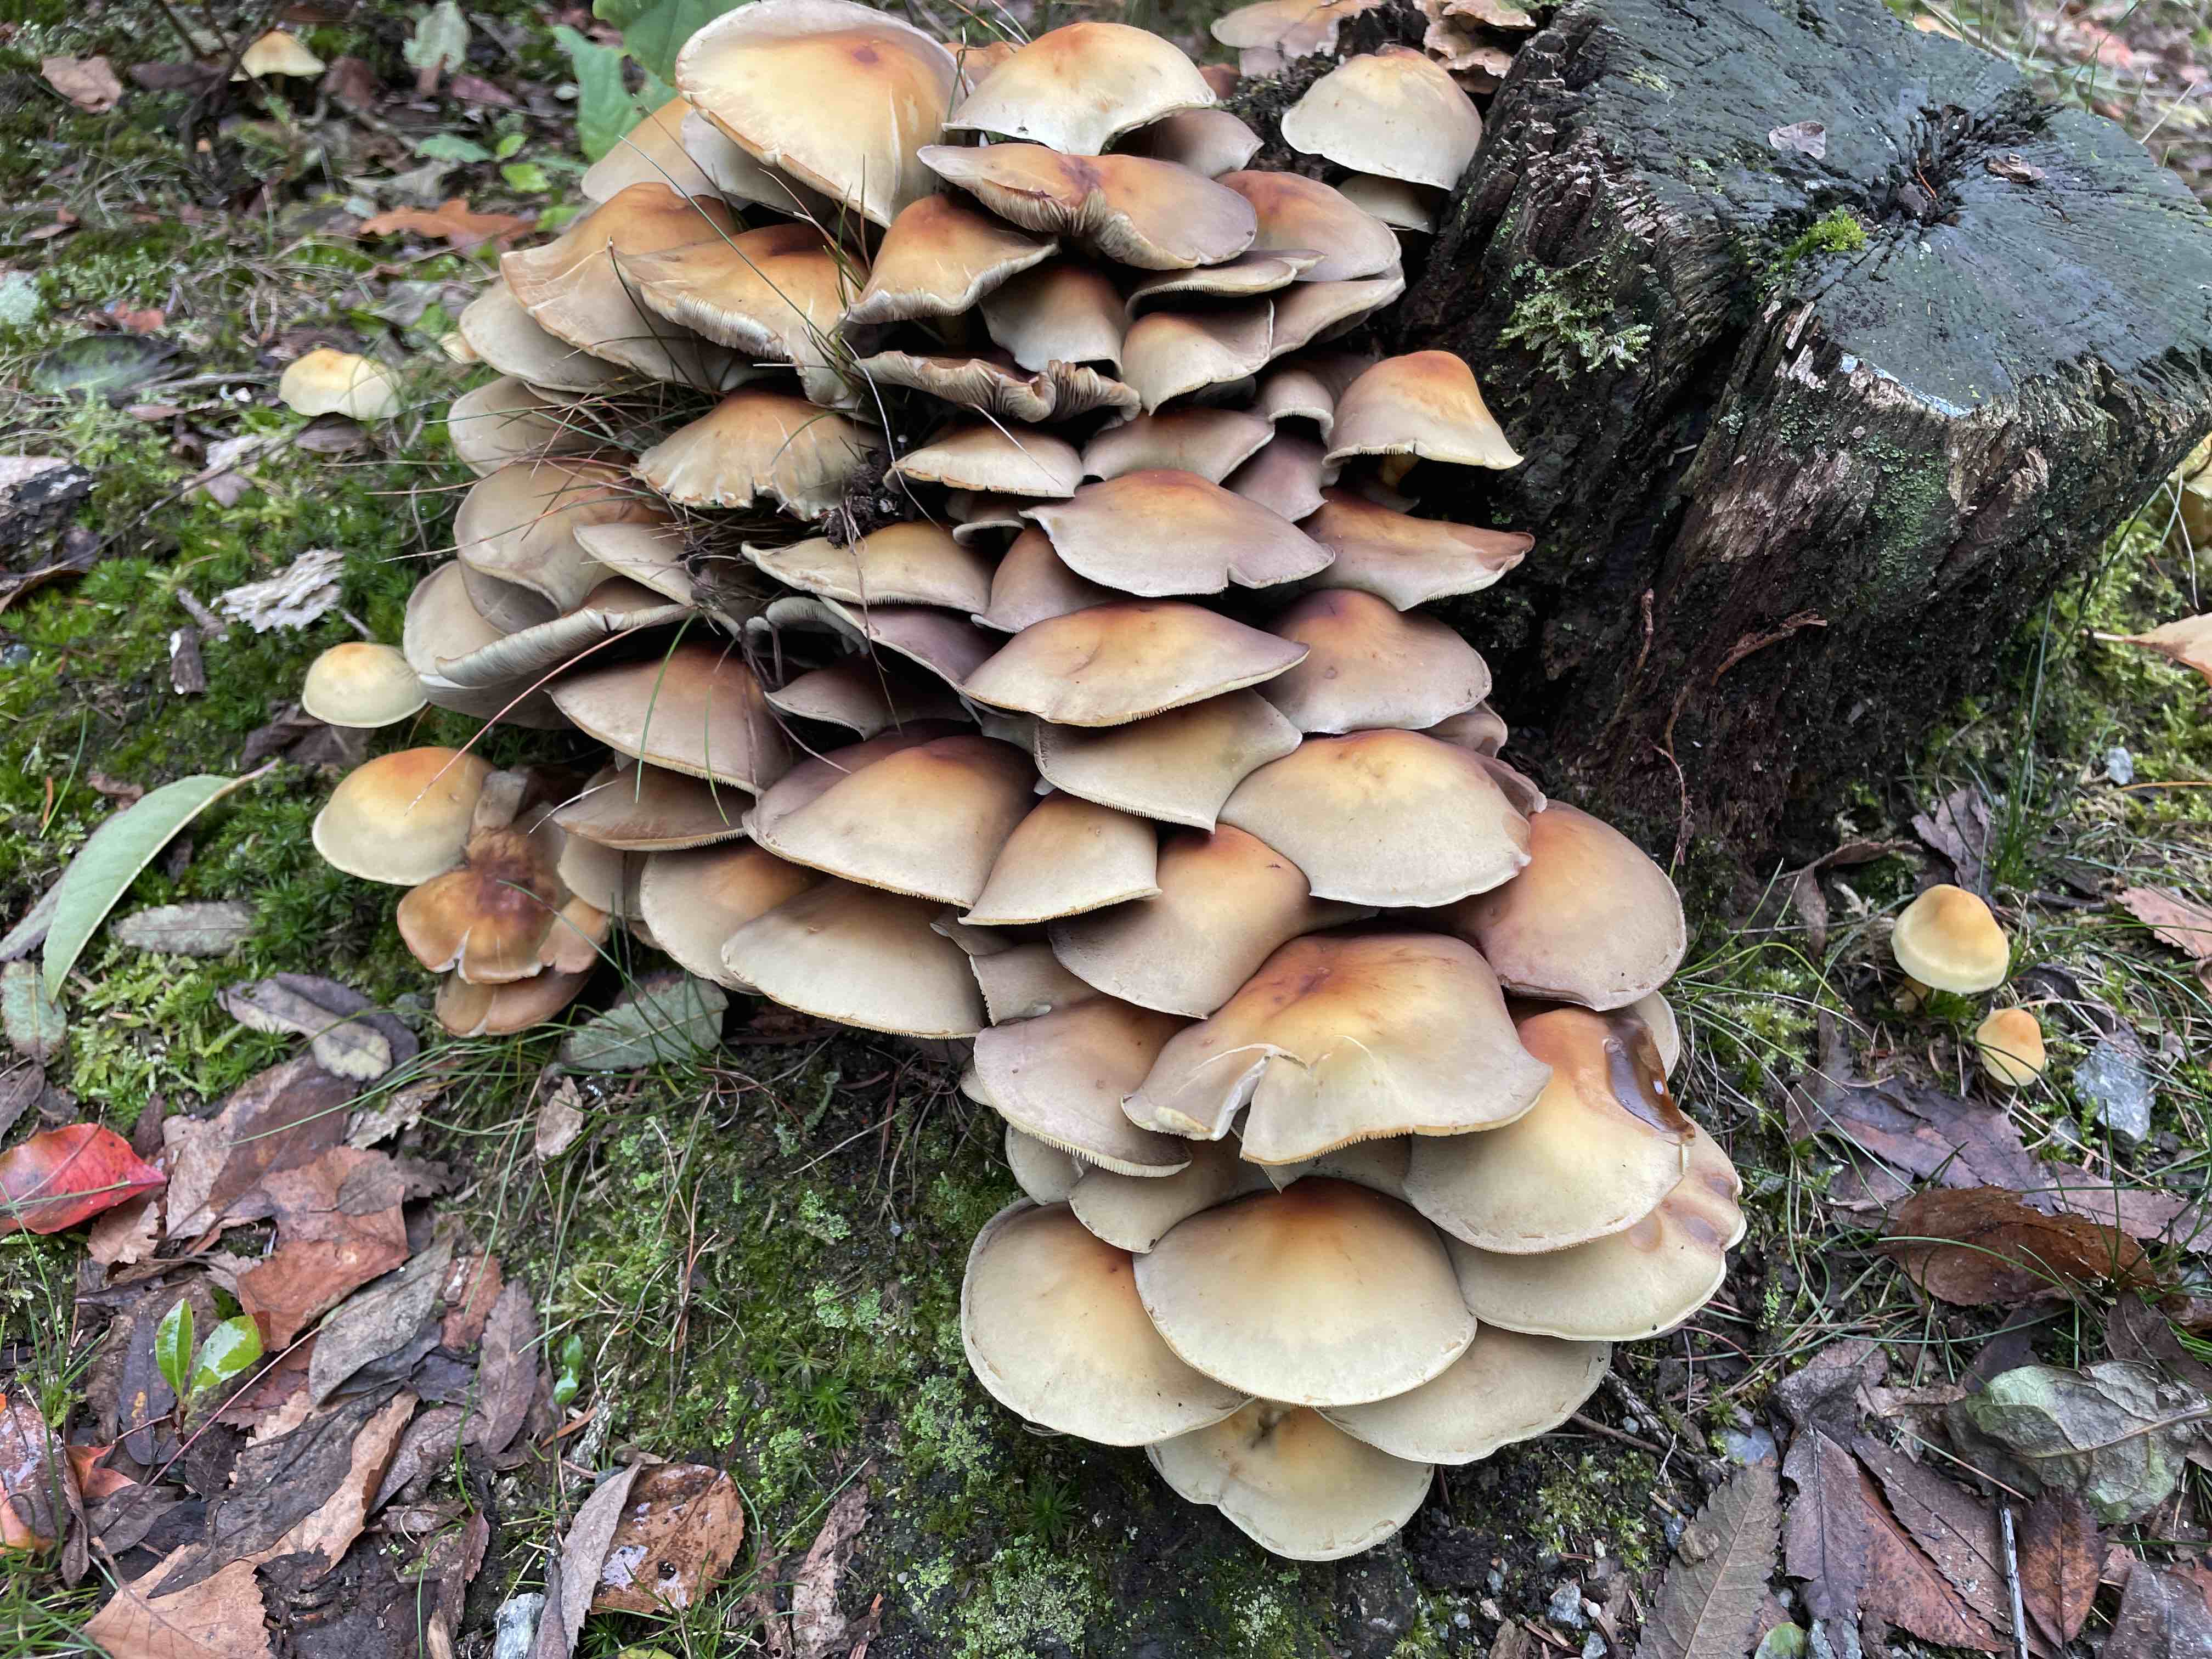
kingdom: Fungi
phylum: Basidiomycota
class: Agaricomycetes
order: Agaricales
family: Strophariaceae
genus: Hypholoma
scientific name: Hypholoma fasciculare
